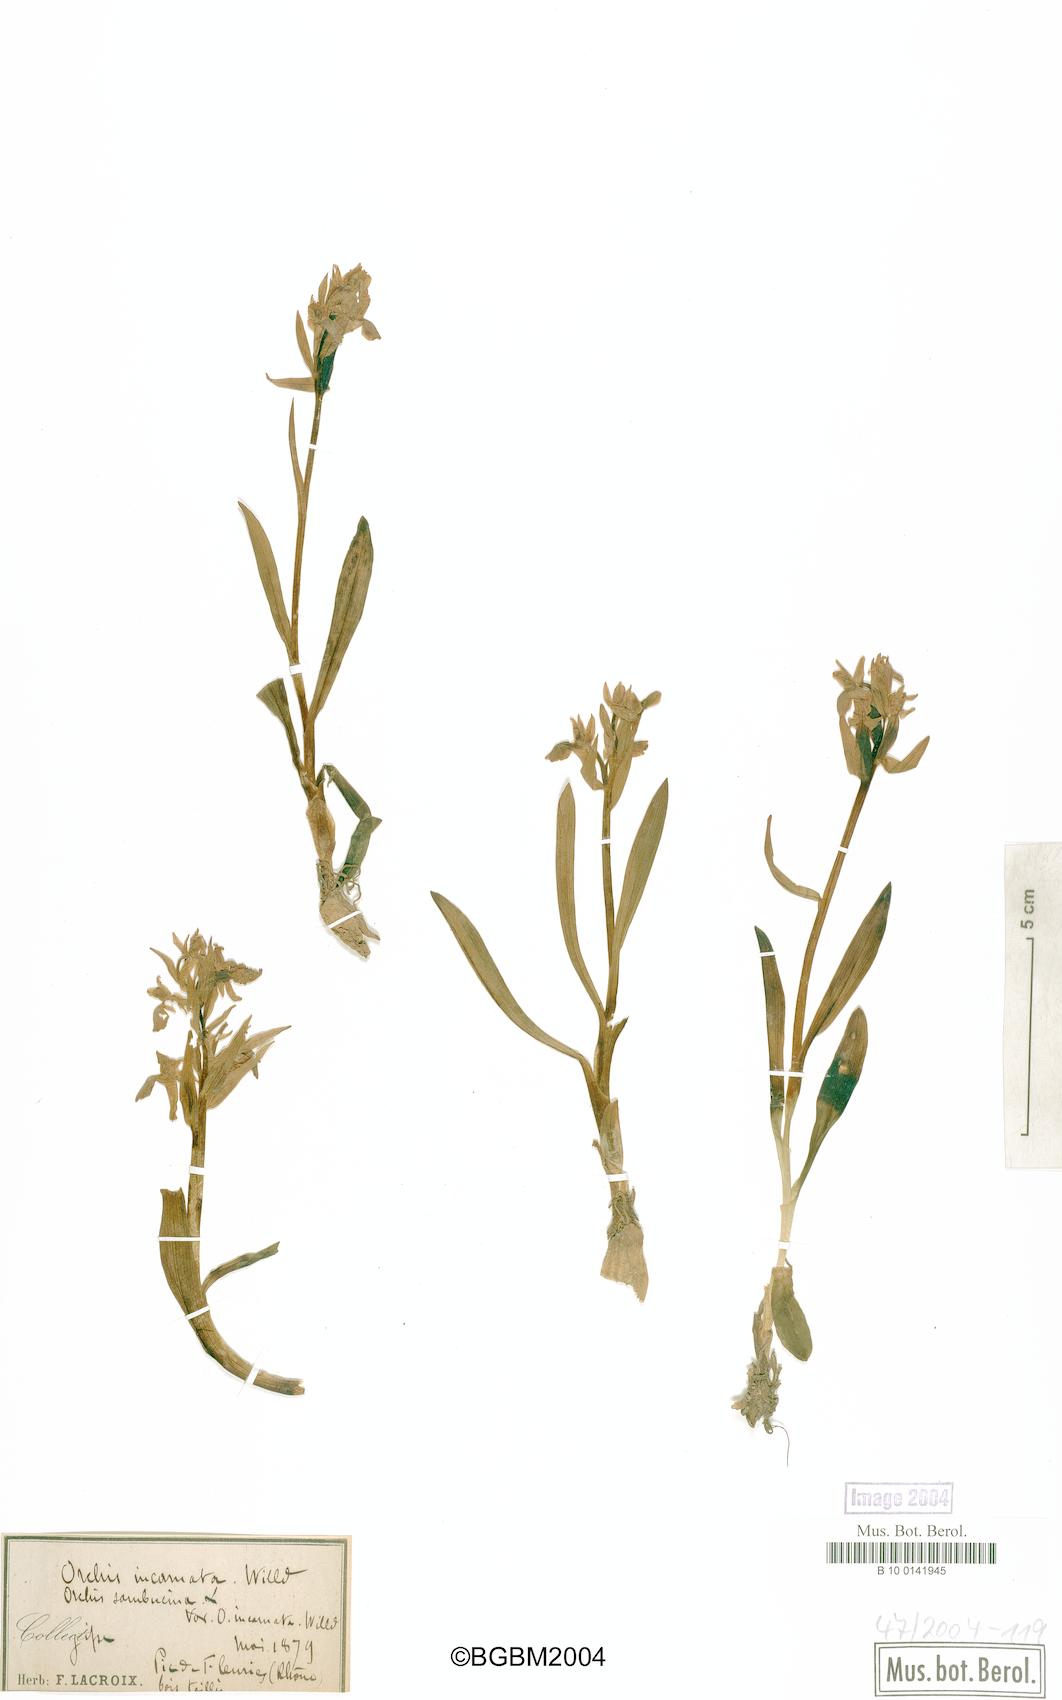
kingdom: Plantae
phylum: Tracheophyta
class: Liliopsida
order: Asparagales
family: Orchidaceae
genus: Dactylorhiza
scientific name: Dactylorhiza incarnata
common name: Early marsh-orchid
